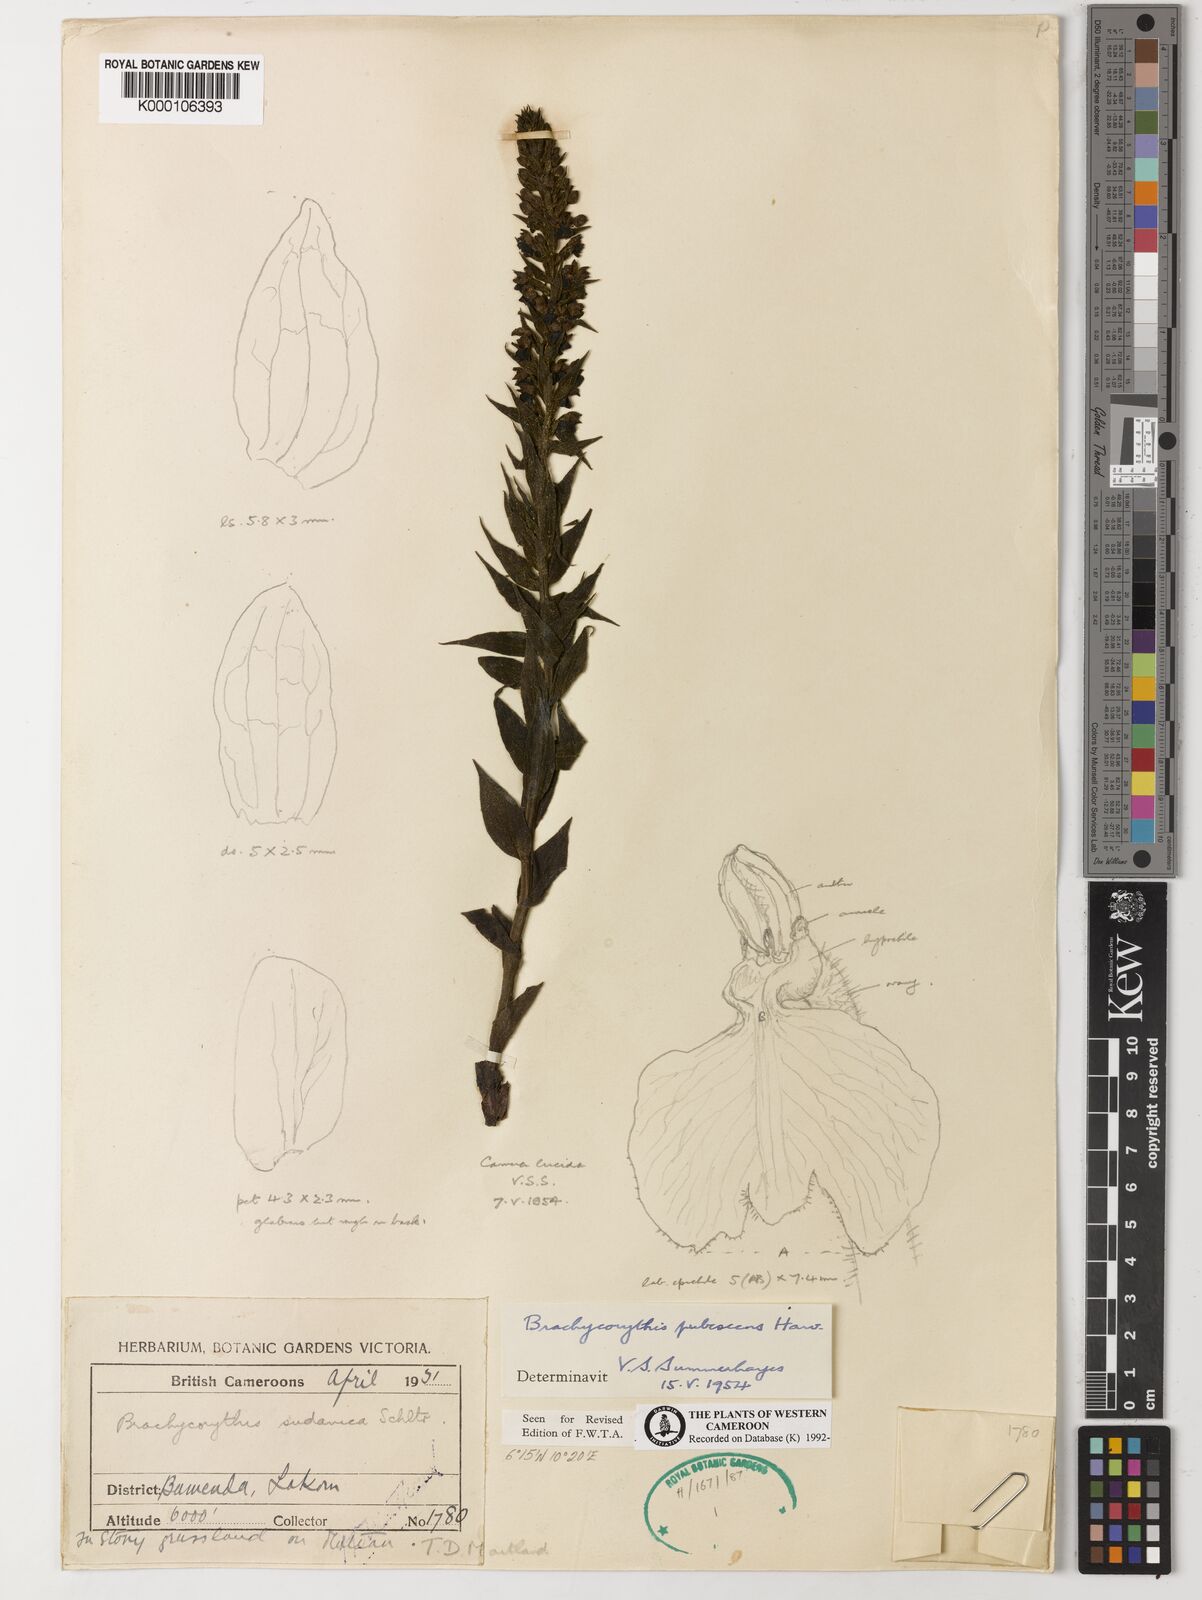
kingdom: Plantae
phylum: Tracheophyta
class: Liliopsida
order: Asparagales
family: Orchidaceae
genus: Brachycorythis
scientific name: Brachycorythis pubescens
